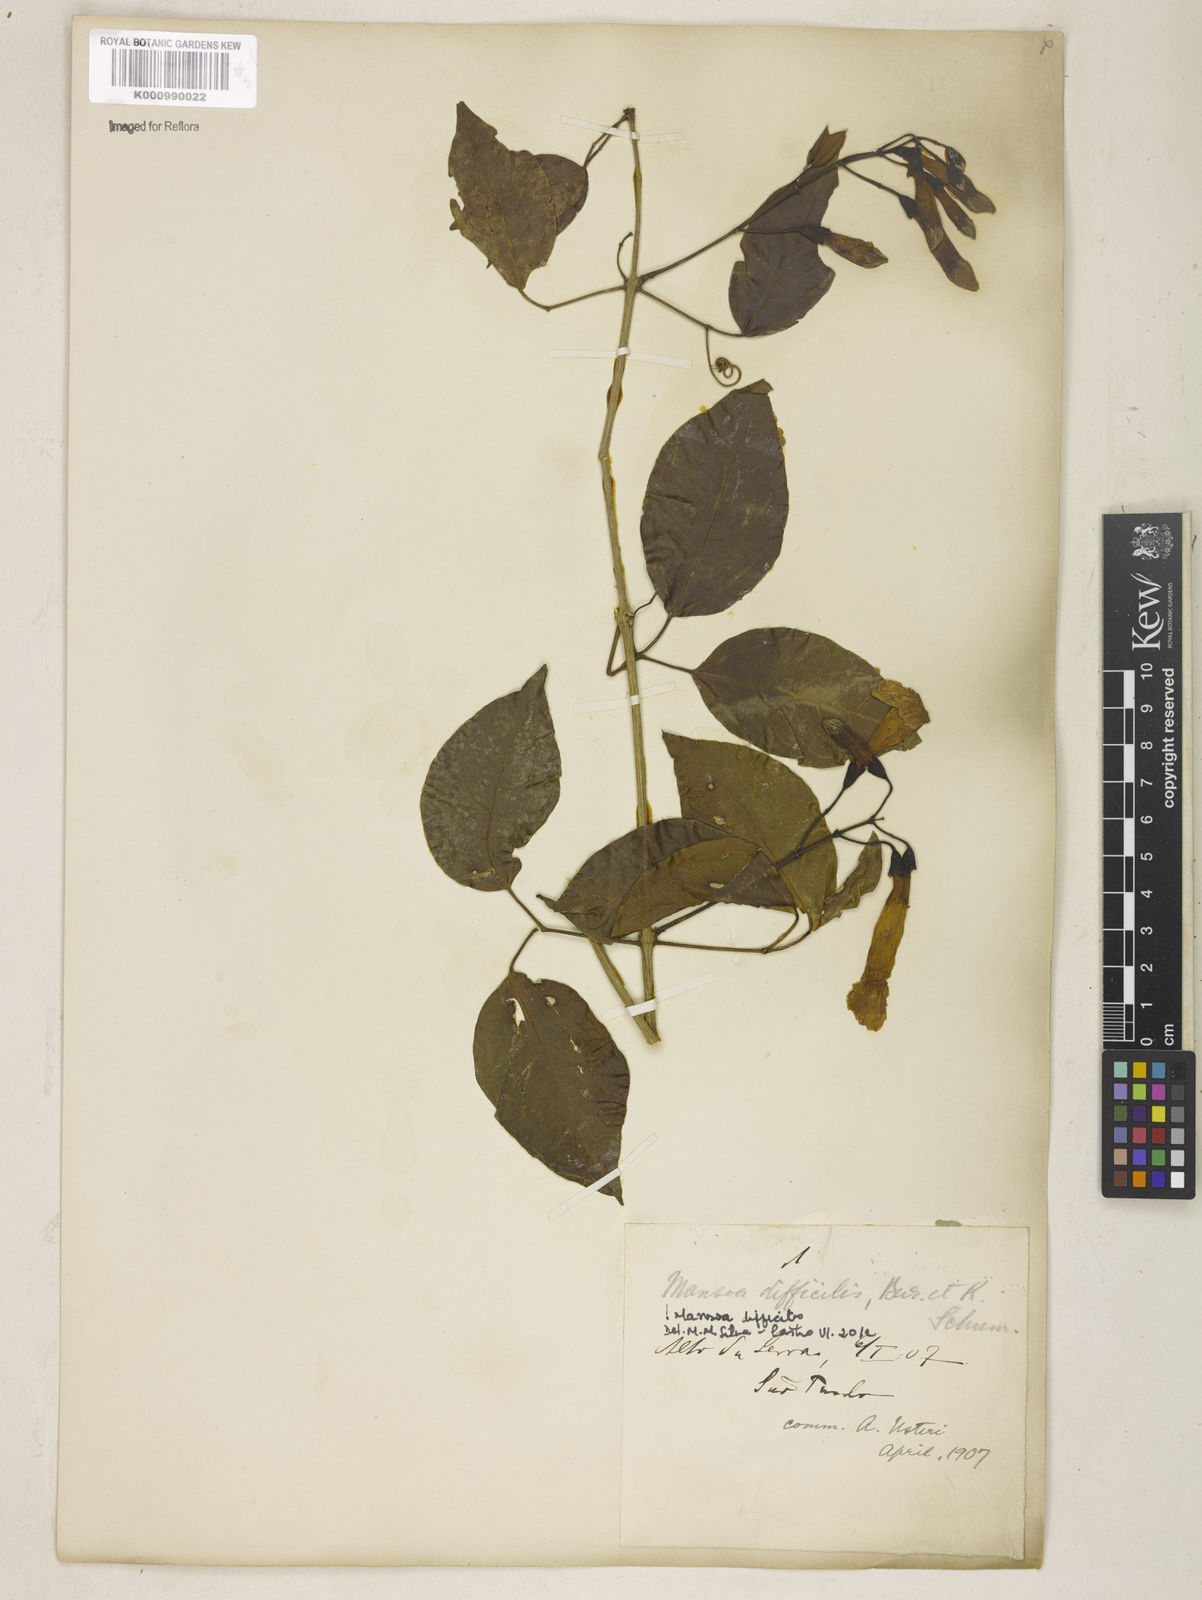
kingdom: Plantae
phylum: Tracheophyta
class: Magnoliopsida
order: Lamiales
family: Bignoniaceae
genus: Mansoa
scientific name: Mansoa difficilis
